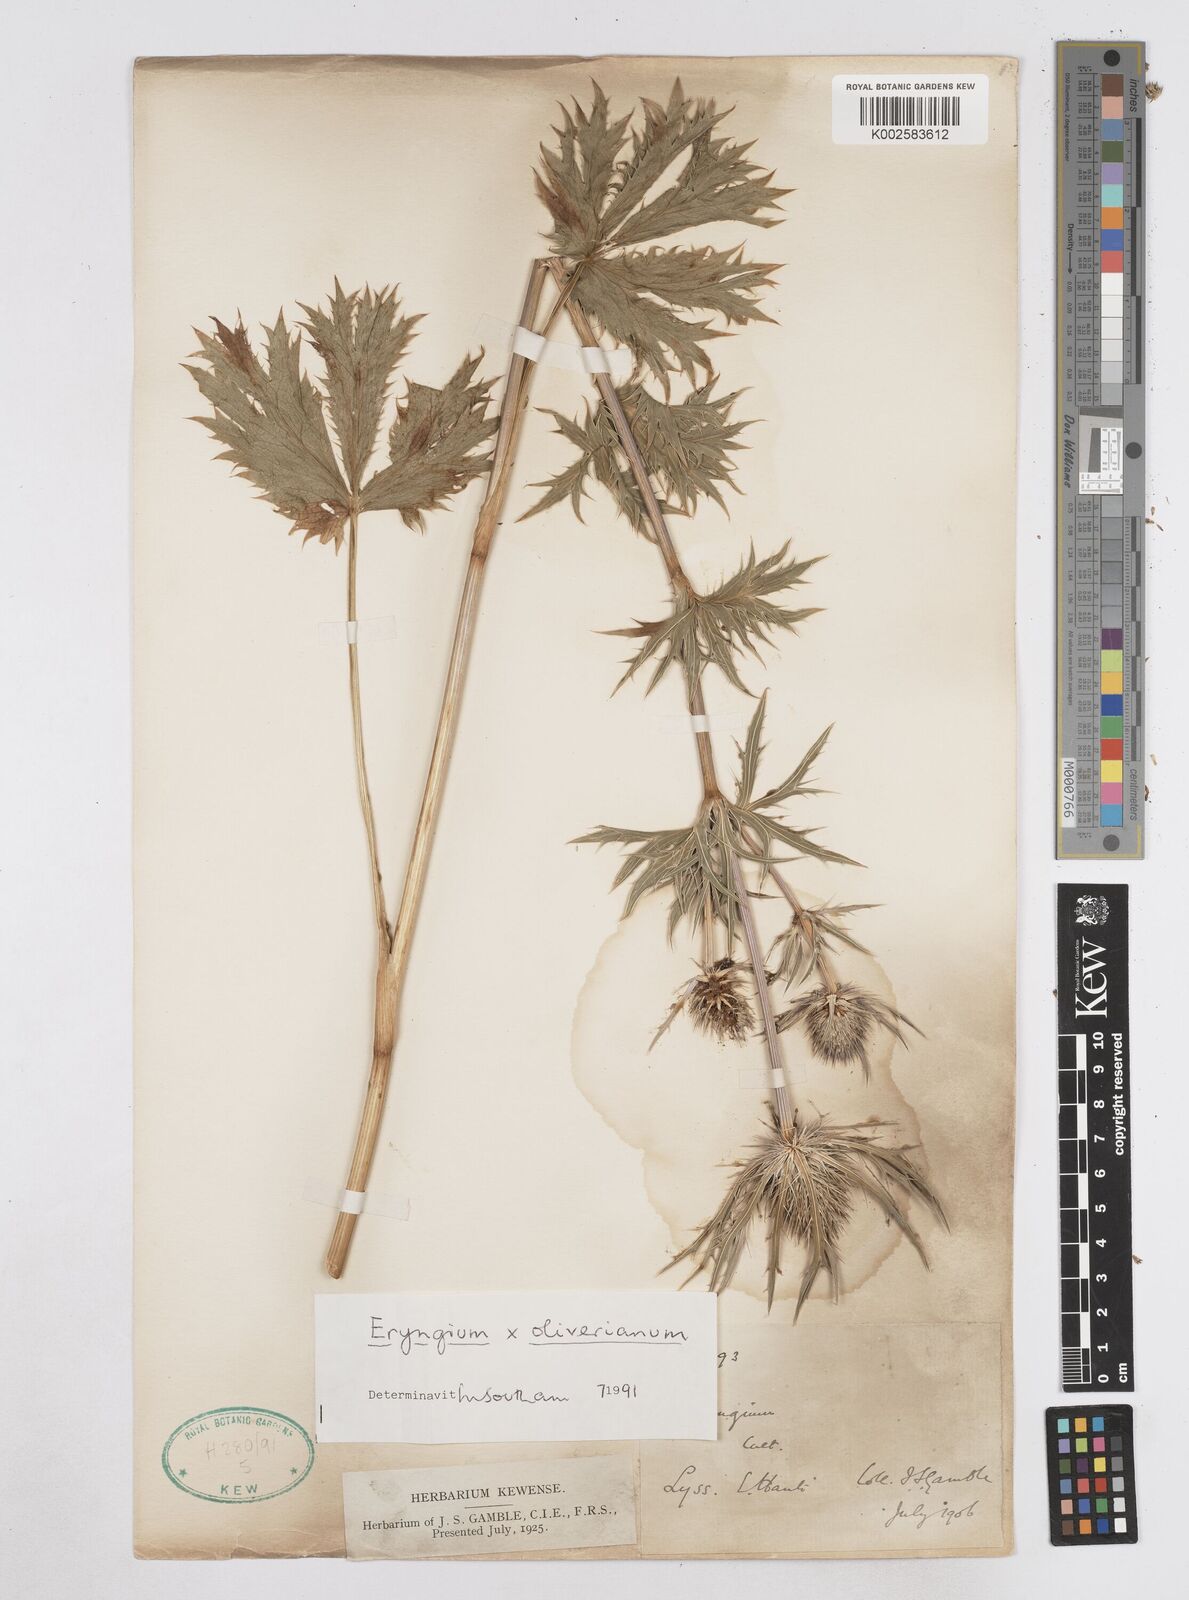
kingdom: Plantae
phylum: Tracheophyta
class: Magnoliopsida
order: Apiales
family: Apiaceae
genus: Eryngium
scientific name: Eryngium oliverianum
